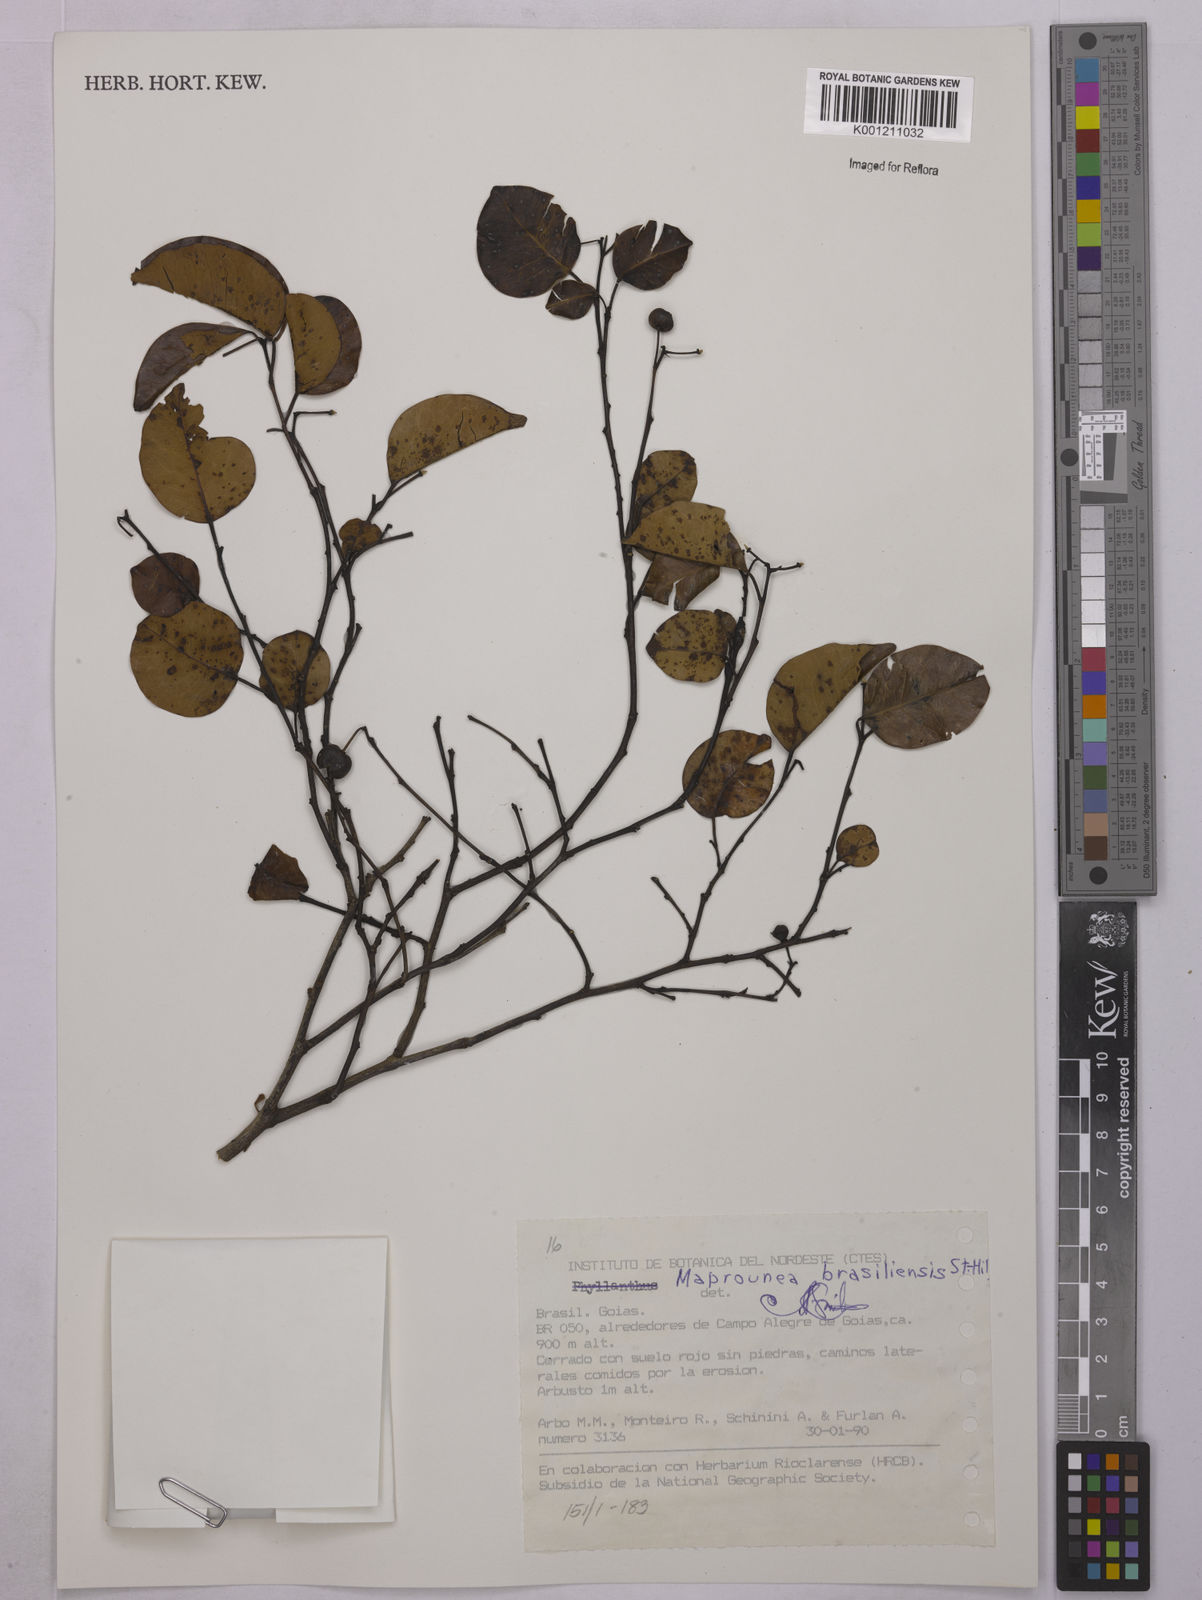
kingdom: Plantae
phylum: Tracheophyta
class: Magnoliopsida
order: Malpighiales
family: Euphorbiaceae
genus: Maprounea
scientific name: Maprounea brasiliensis
